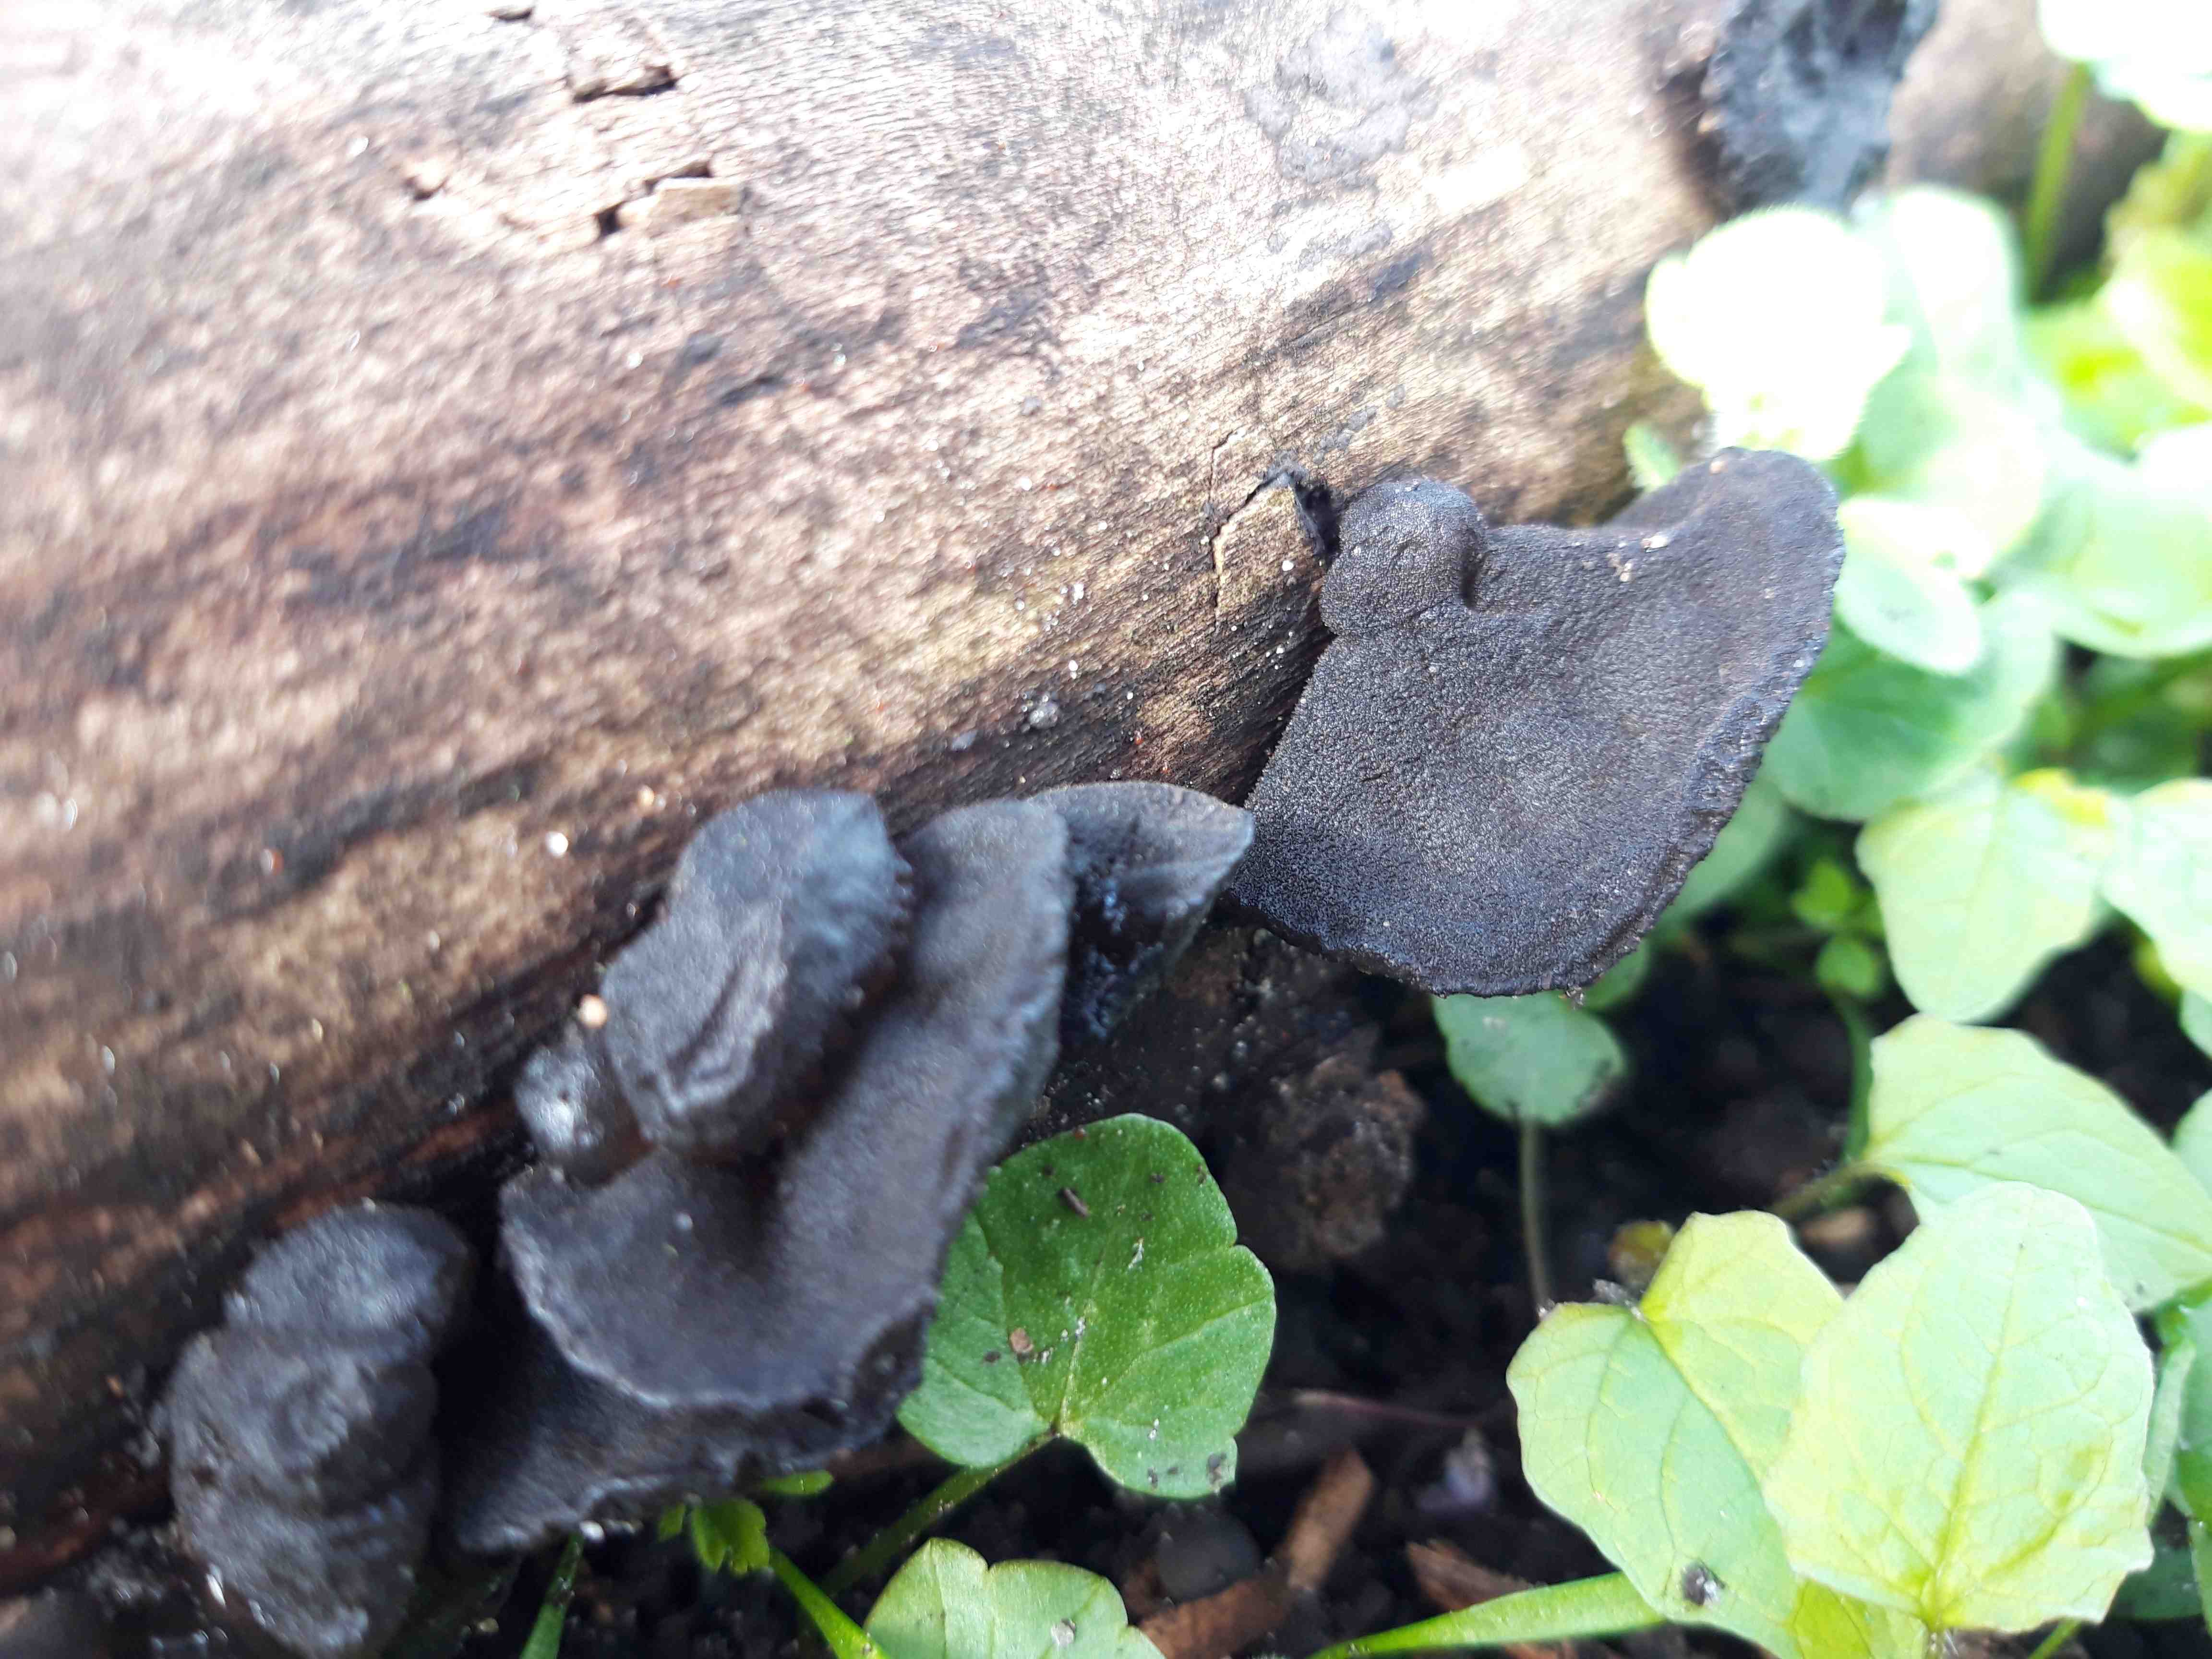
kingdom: Fungi
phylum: Basidiomycota
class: Agaricomycetes
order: Auriculariales
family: Auriculariaceae
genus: Exidia
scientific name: Exidia glandulosa
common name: ege-bævretop
